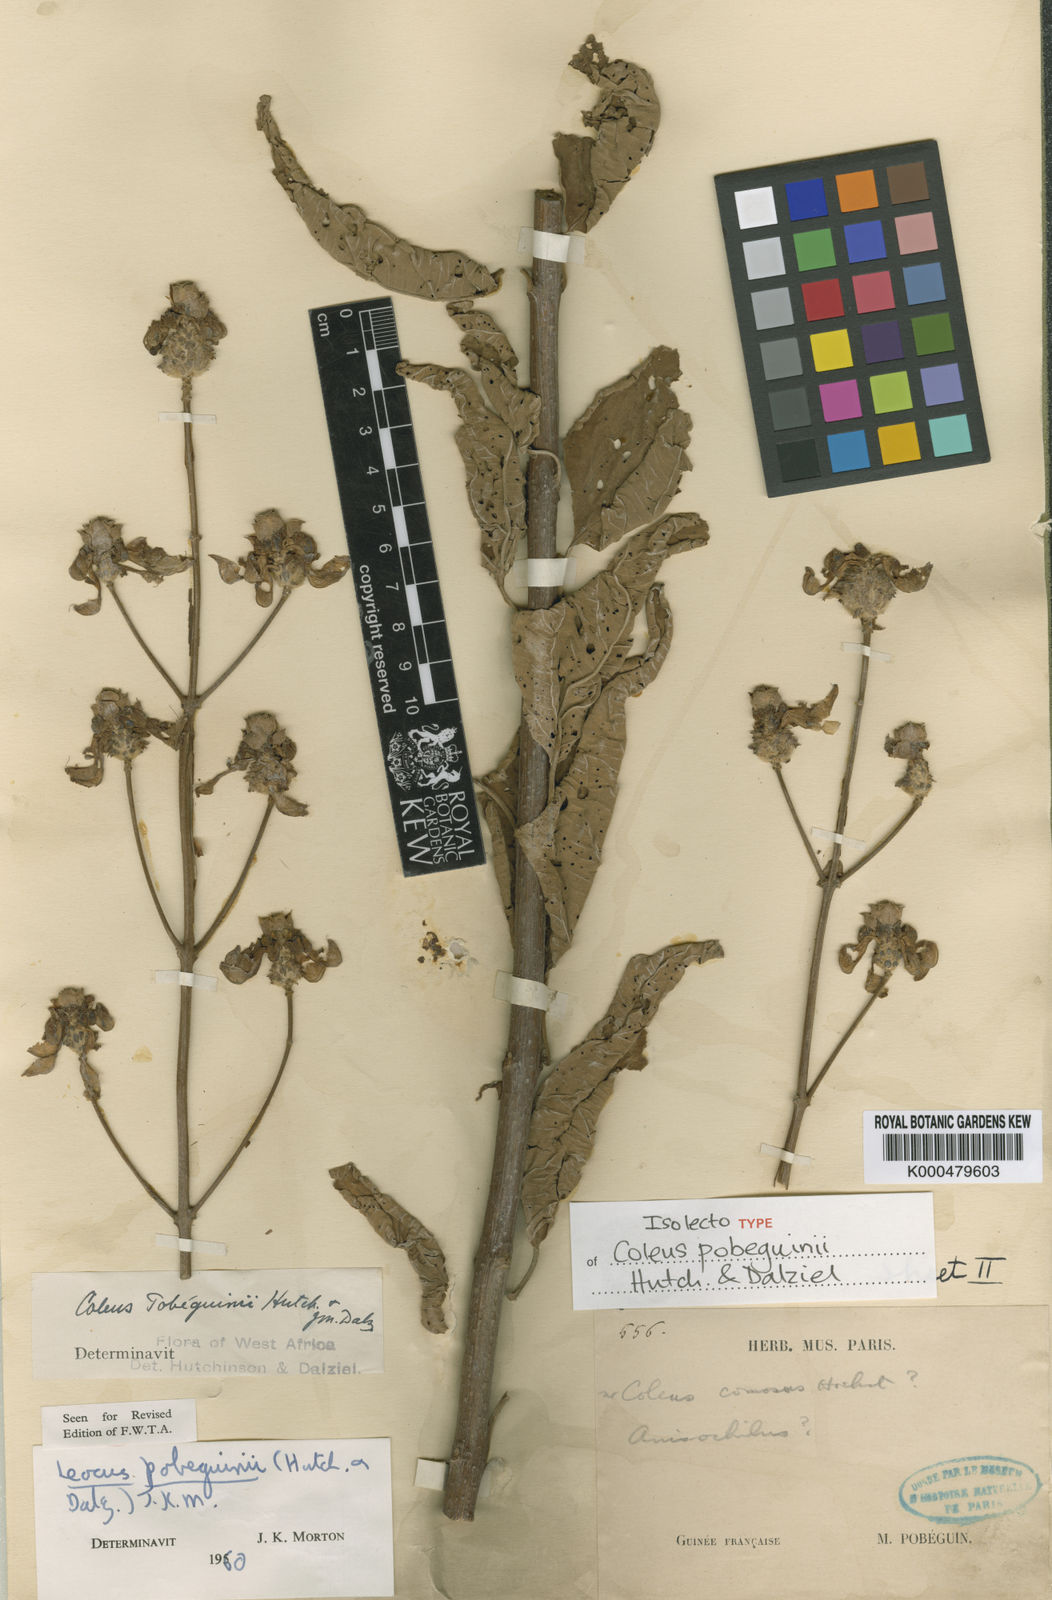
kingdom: Plantae
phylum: Tracheophyta
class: Magnoliopsida
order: Lamiales
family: Lamiaceae
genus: Coleus
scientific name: Coleus pobeguinii
